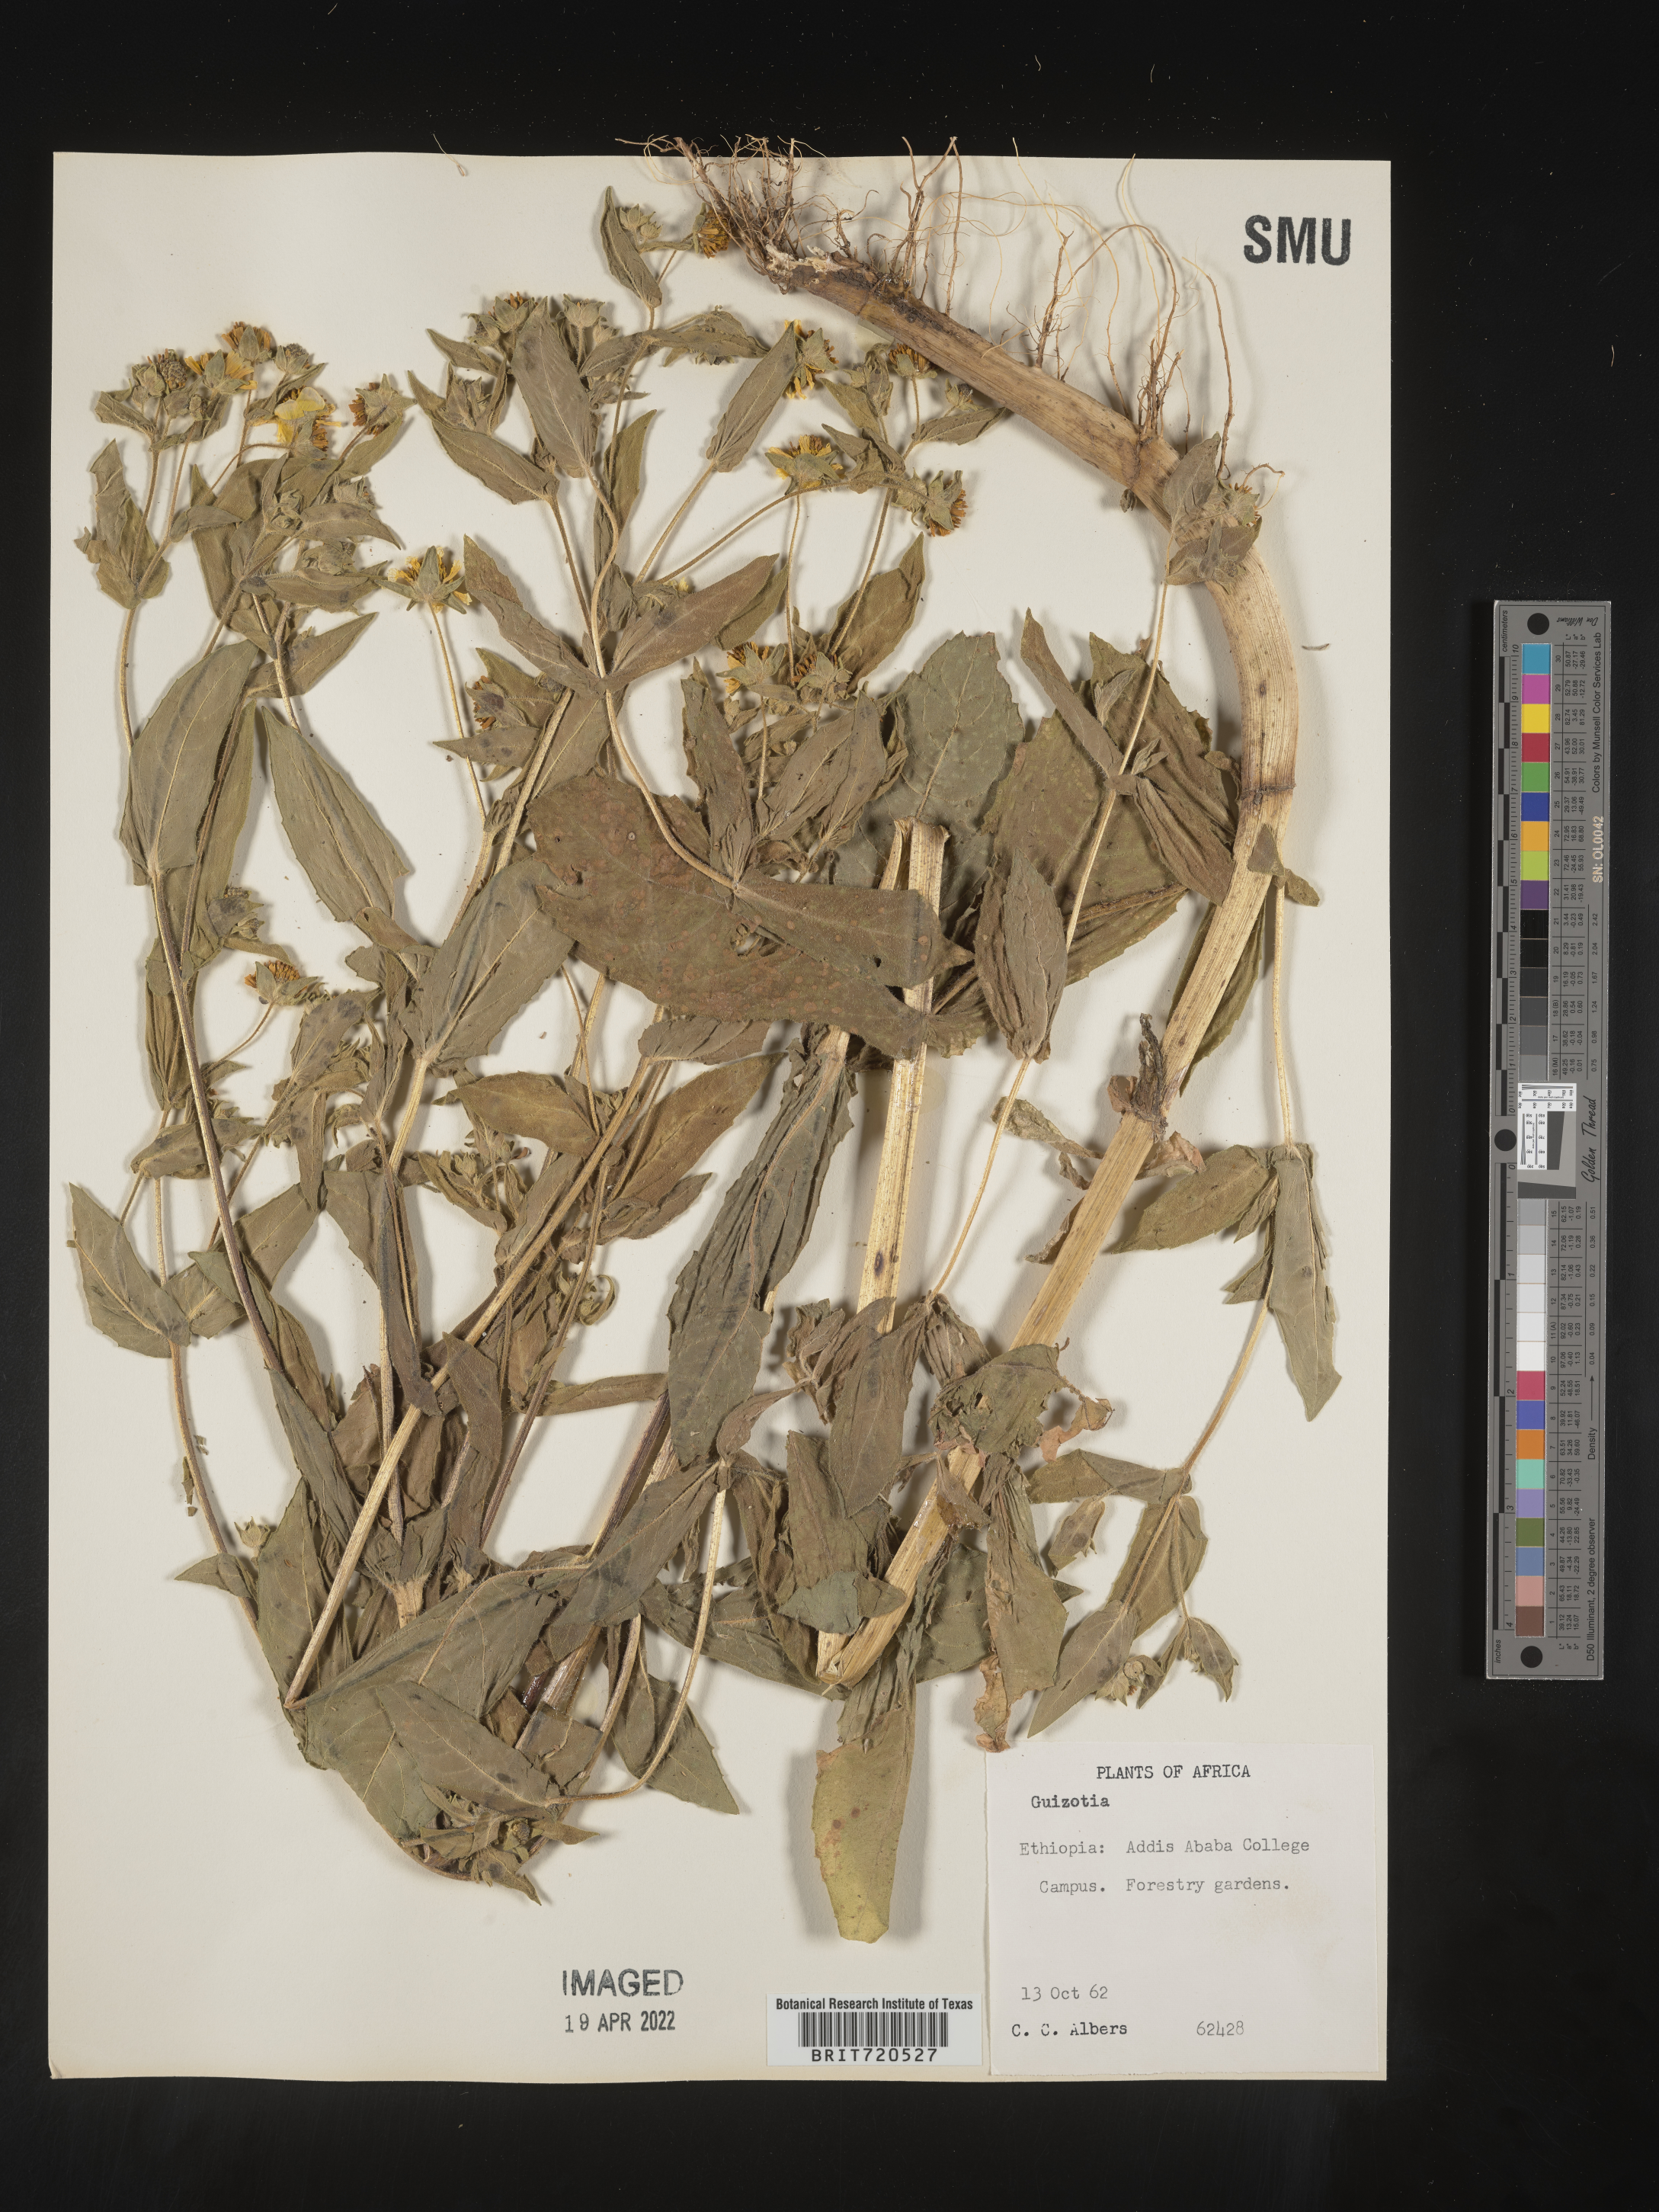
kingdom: Plantae
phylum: Tracheophyta
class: Magnoliopsida
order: Asterales
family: Asteraceae
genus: Guizotia
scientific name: Guizotia
